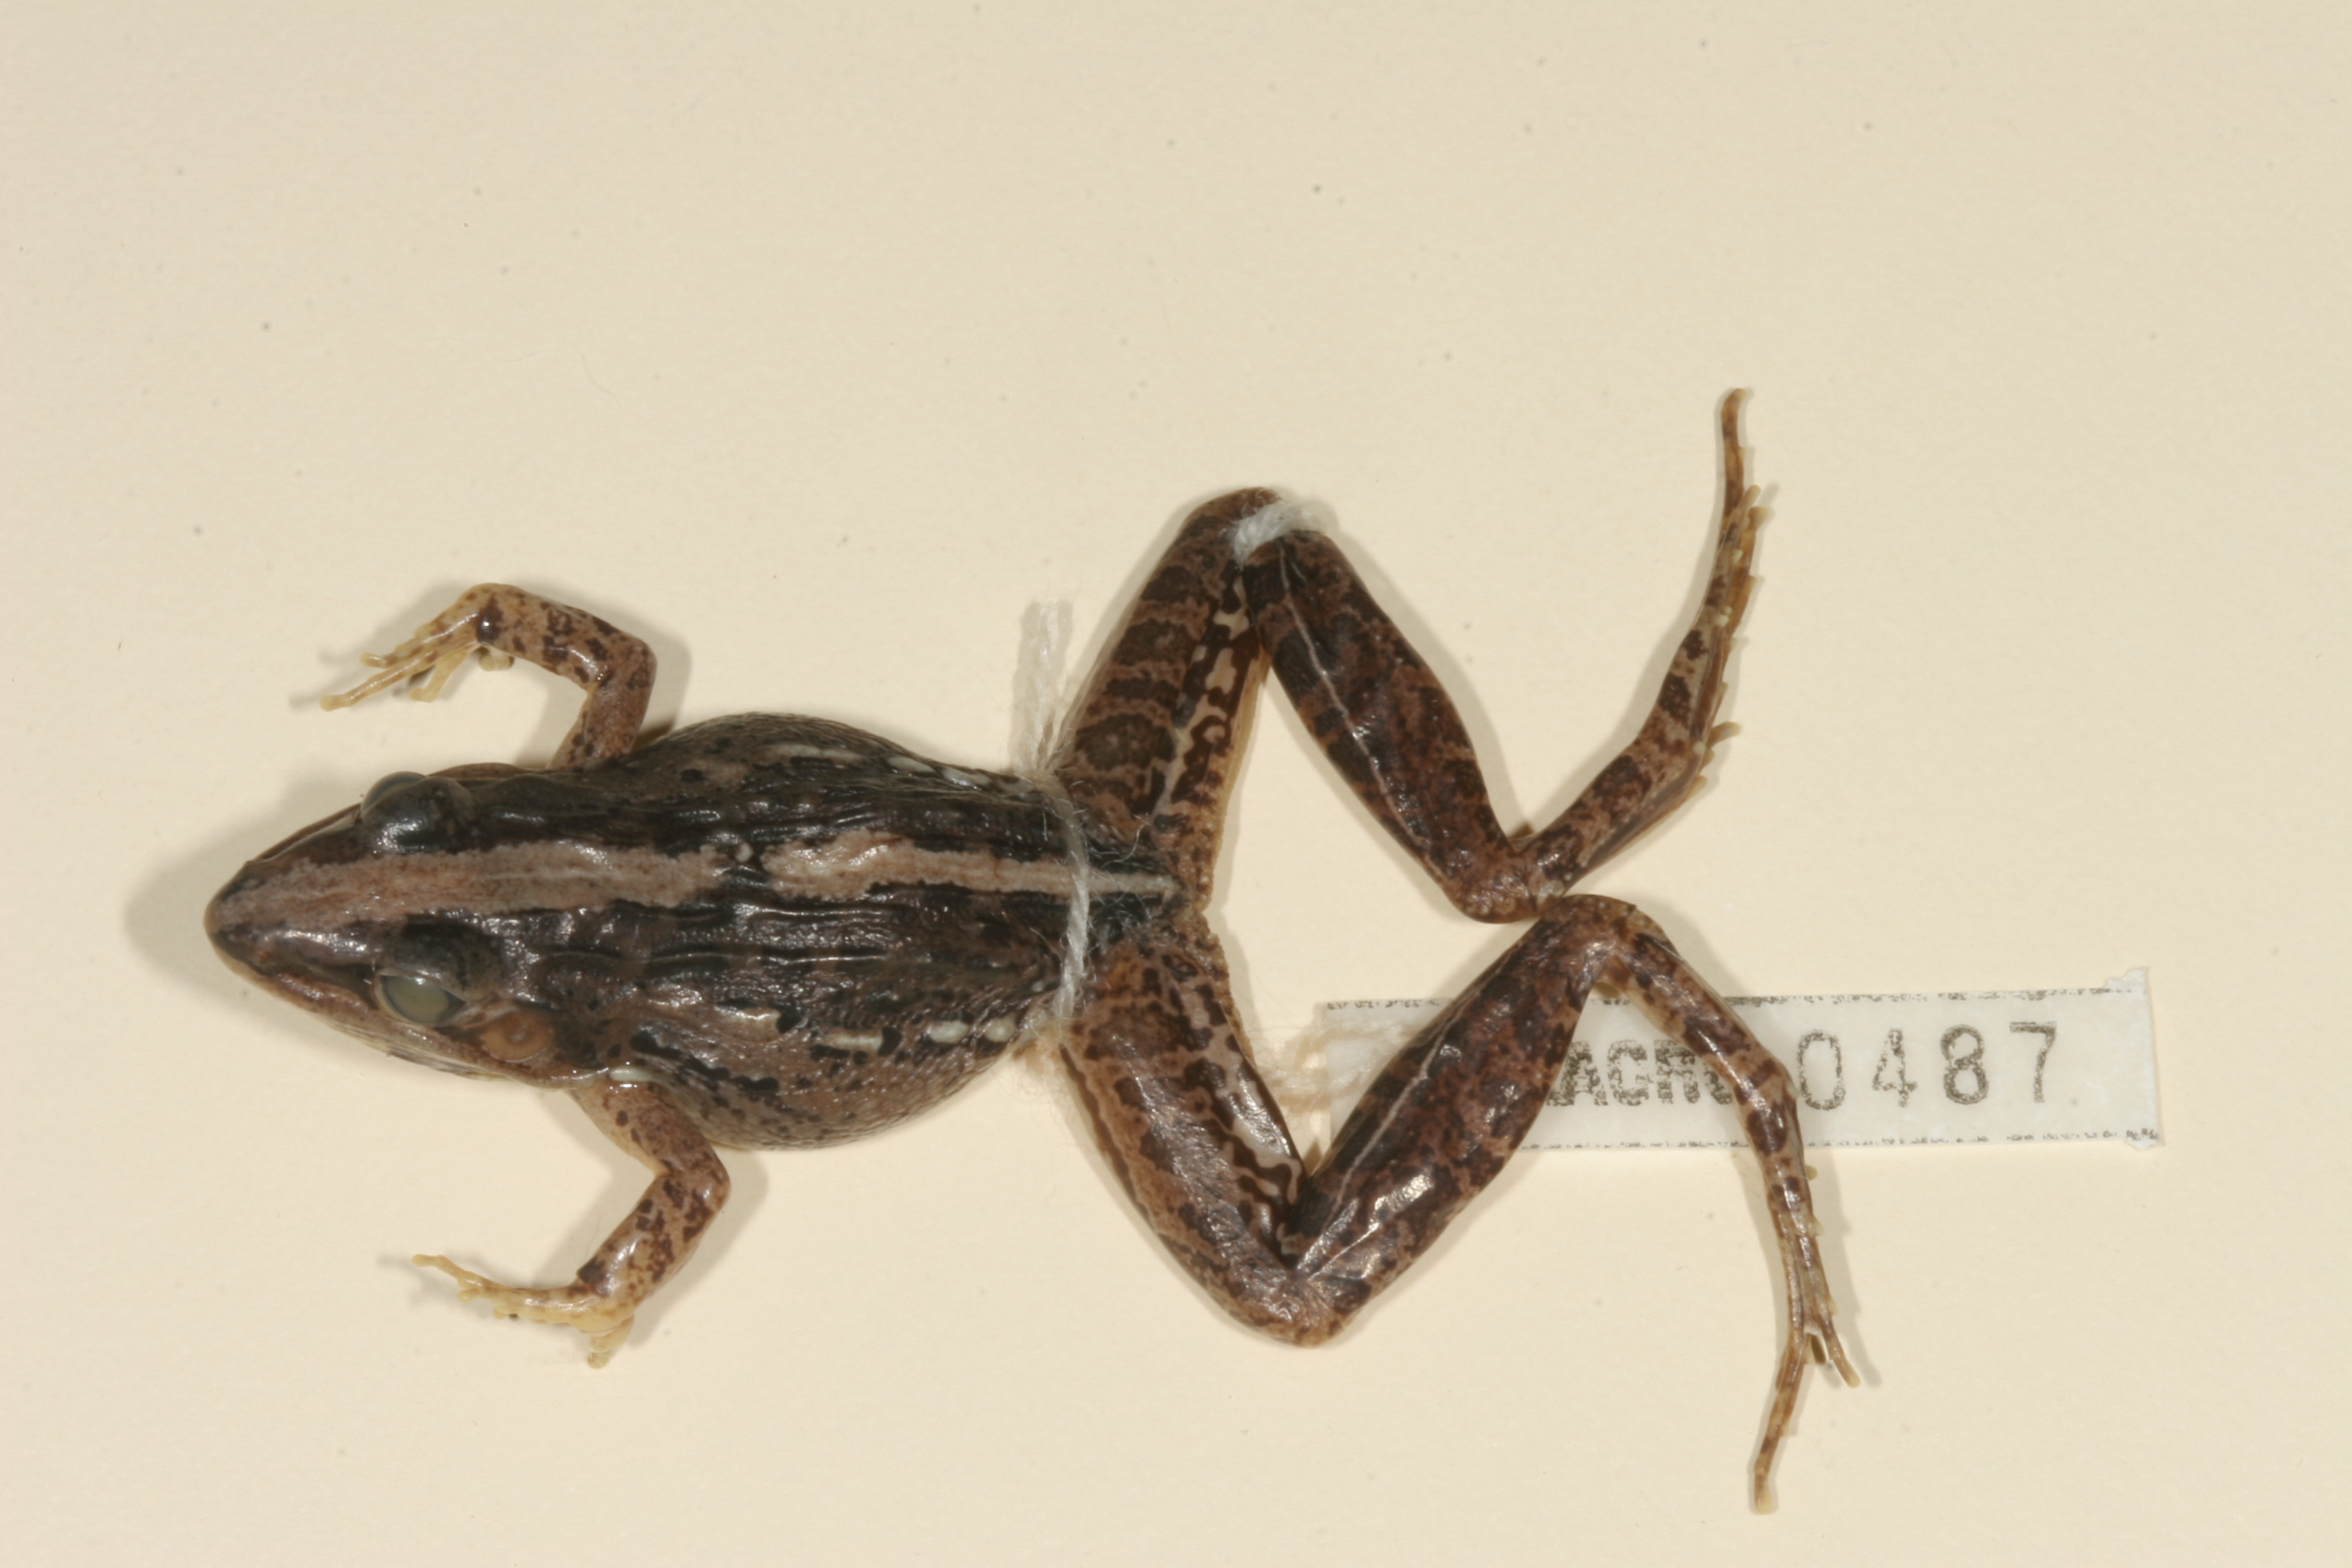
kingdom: Animalia
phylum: Chordata
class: Amphibia
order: Anura
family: Ptychadenidae
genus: Ptychadena
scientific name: Ptychadena mossambica
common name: Mozambique ridged frog
